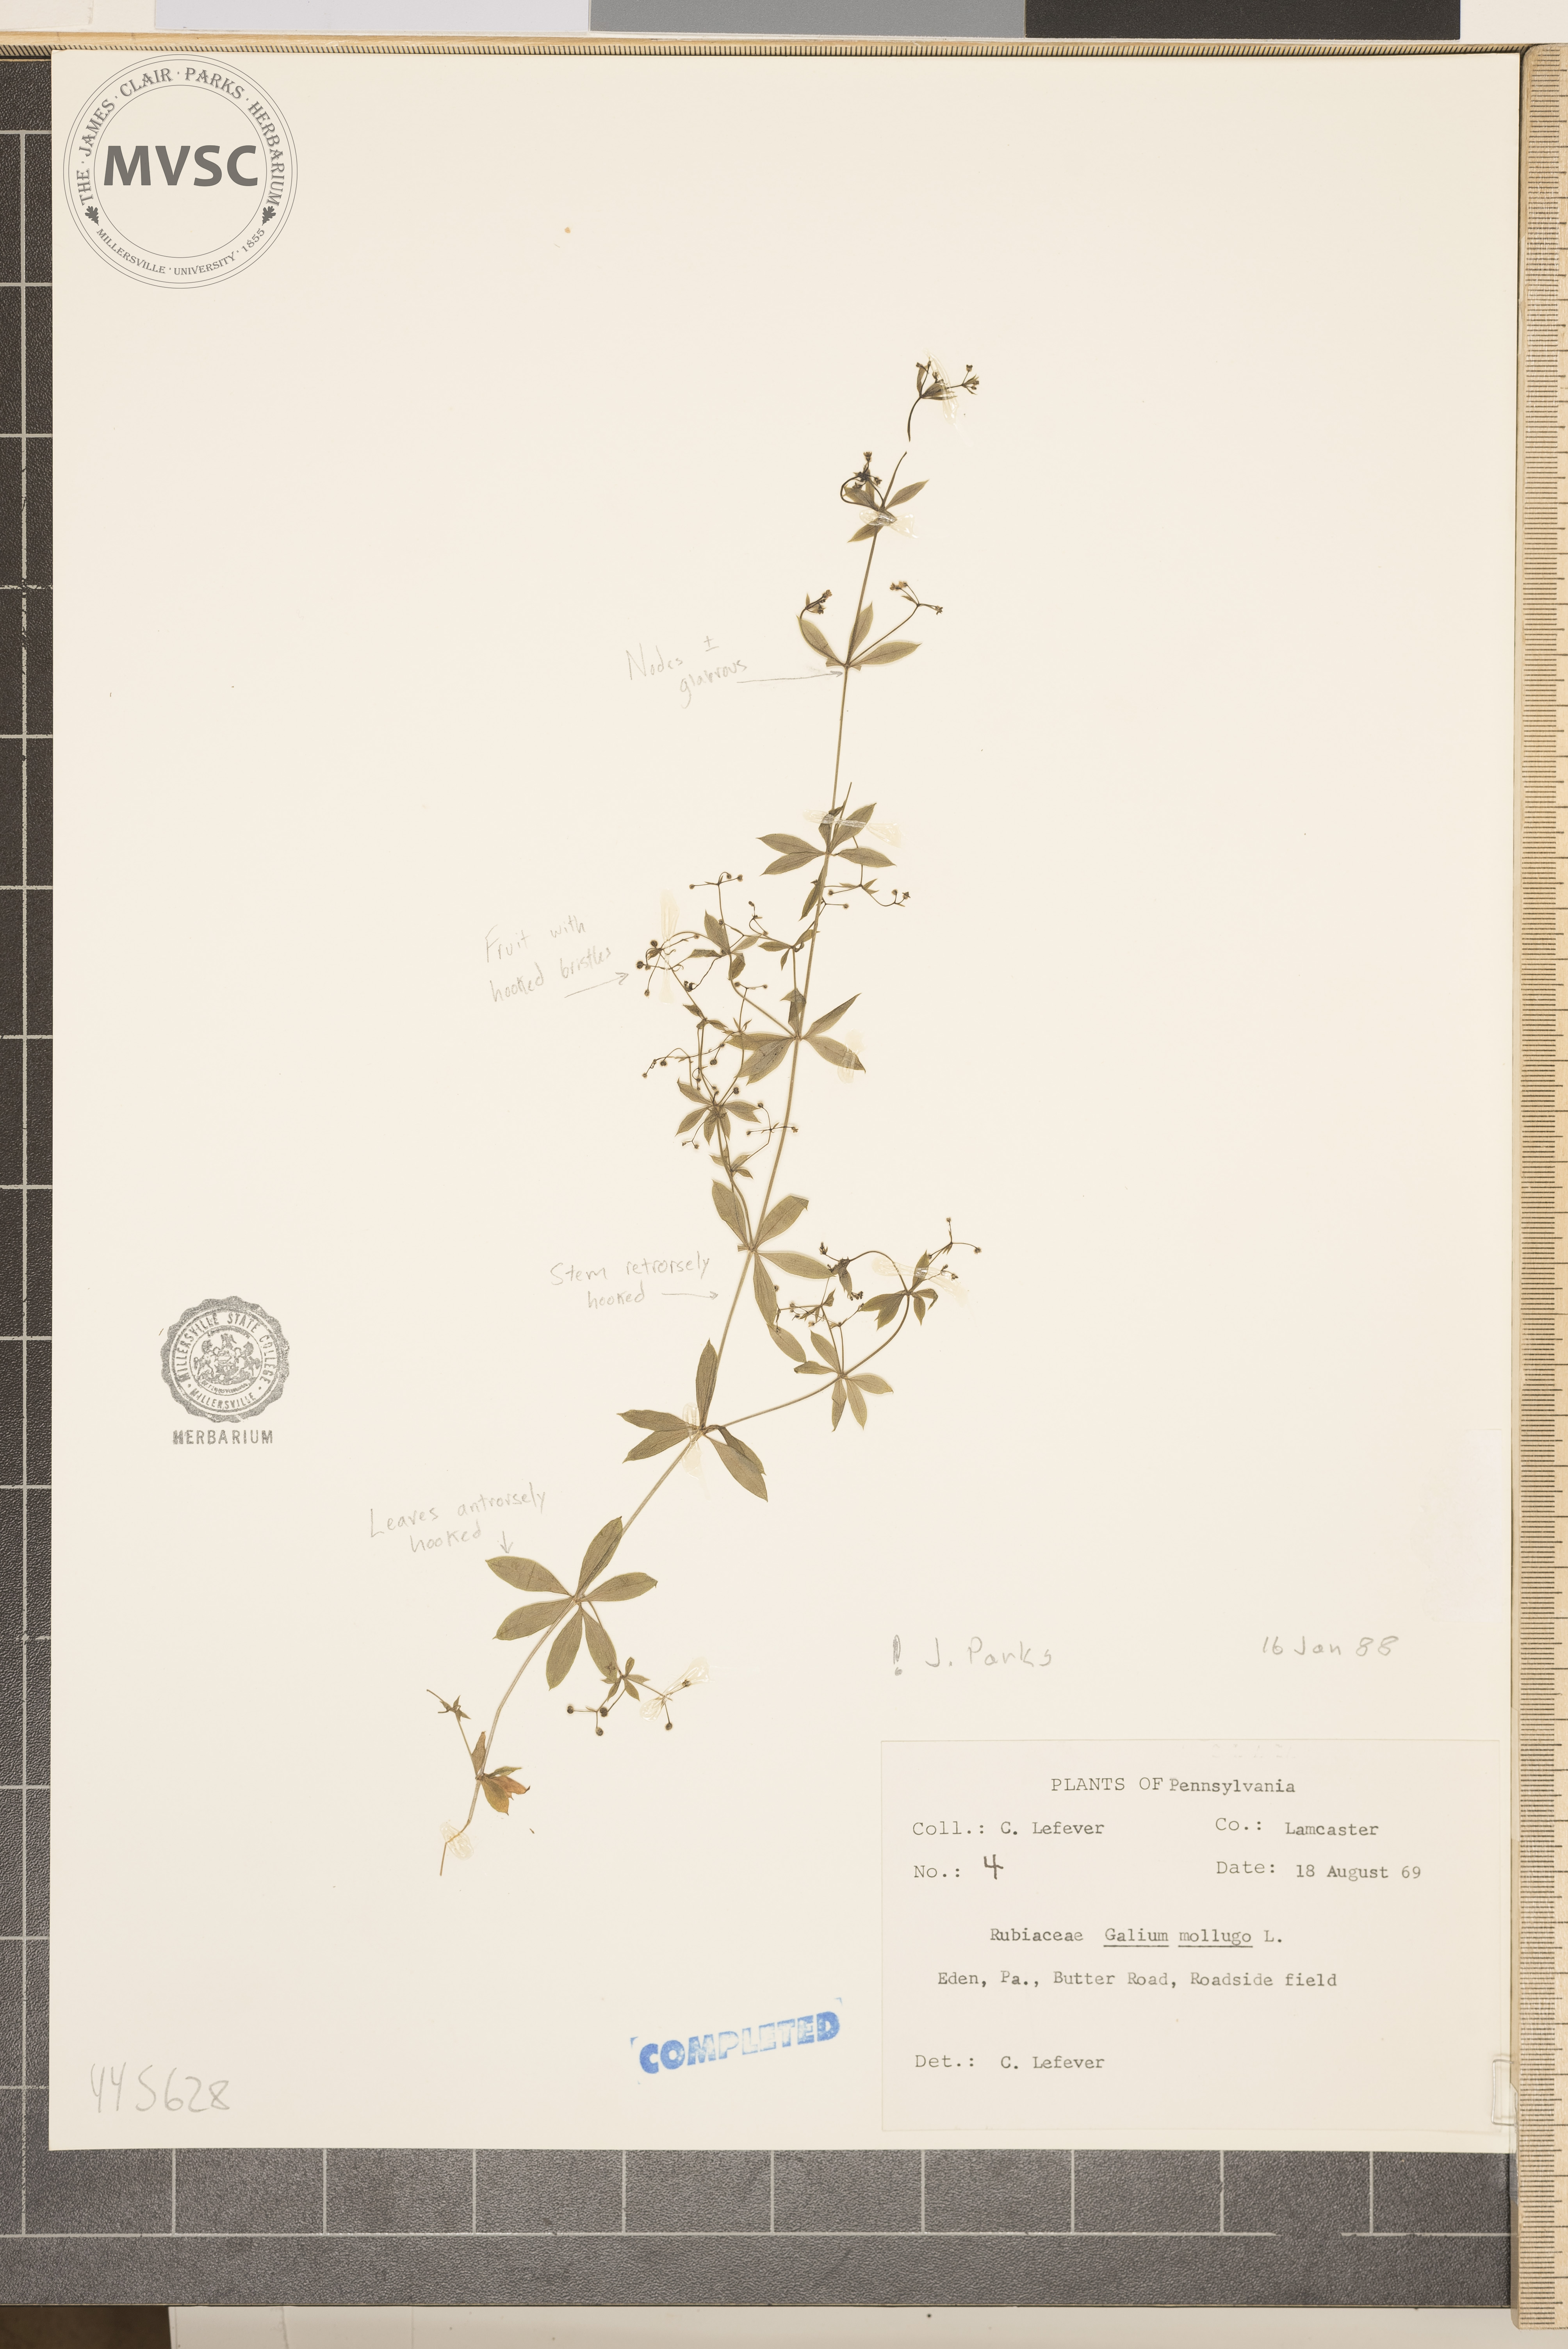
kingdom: Plantae
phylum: Tracheophyta
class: Magnoliopsida
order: Gentianales
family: Rubiaceae
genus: Galium
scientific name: Galium mollugo
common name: Hedge bedstraw
